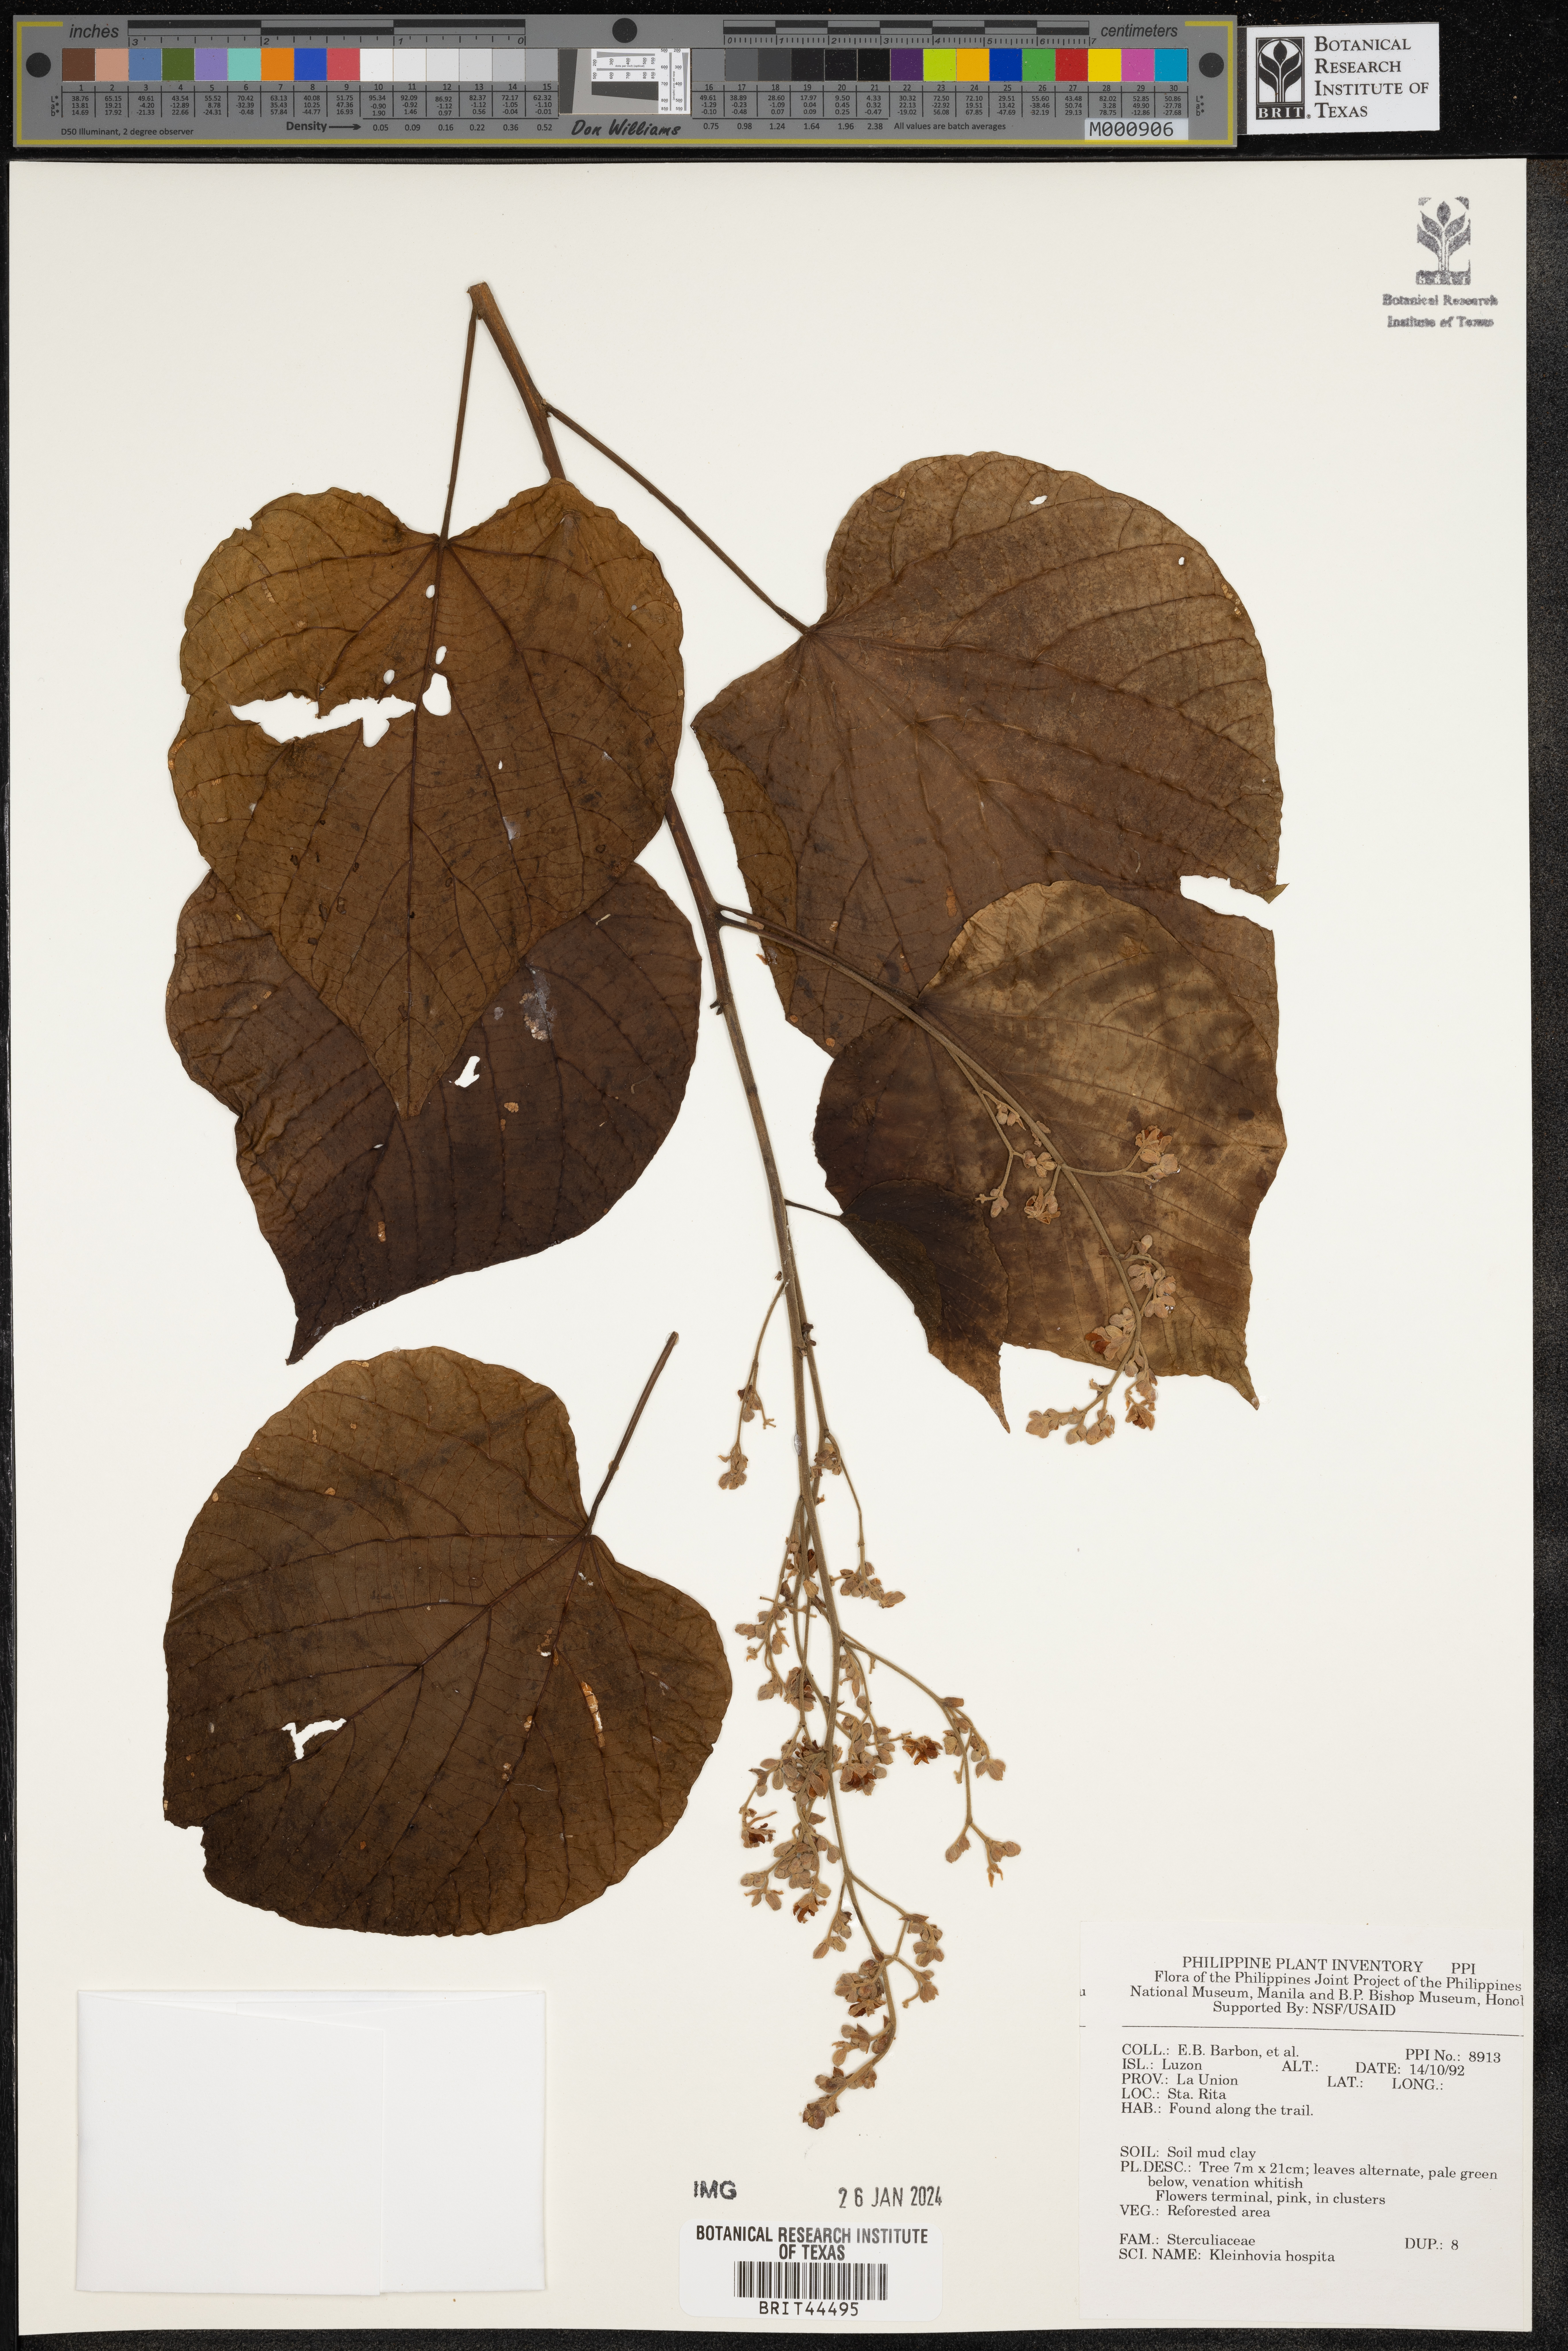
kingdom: Plantae
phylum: Tracheophyta
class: Magnoliopsida
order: Malvales
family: Malvaceae
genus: Kleinhovia
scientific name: Kleinhovia hospita
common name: Guest-tree
